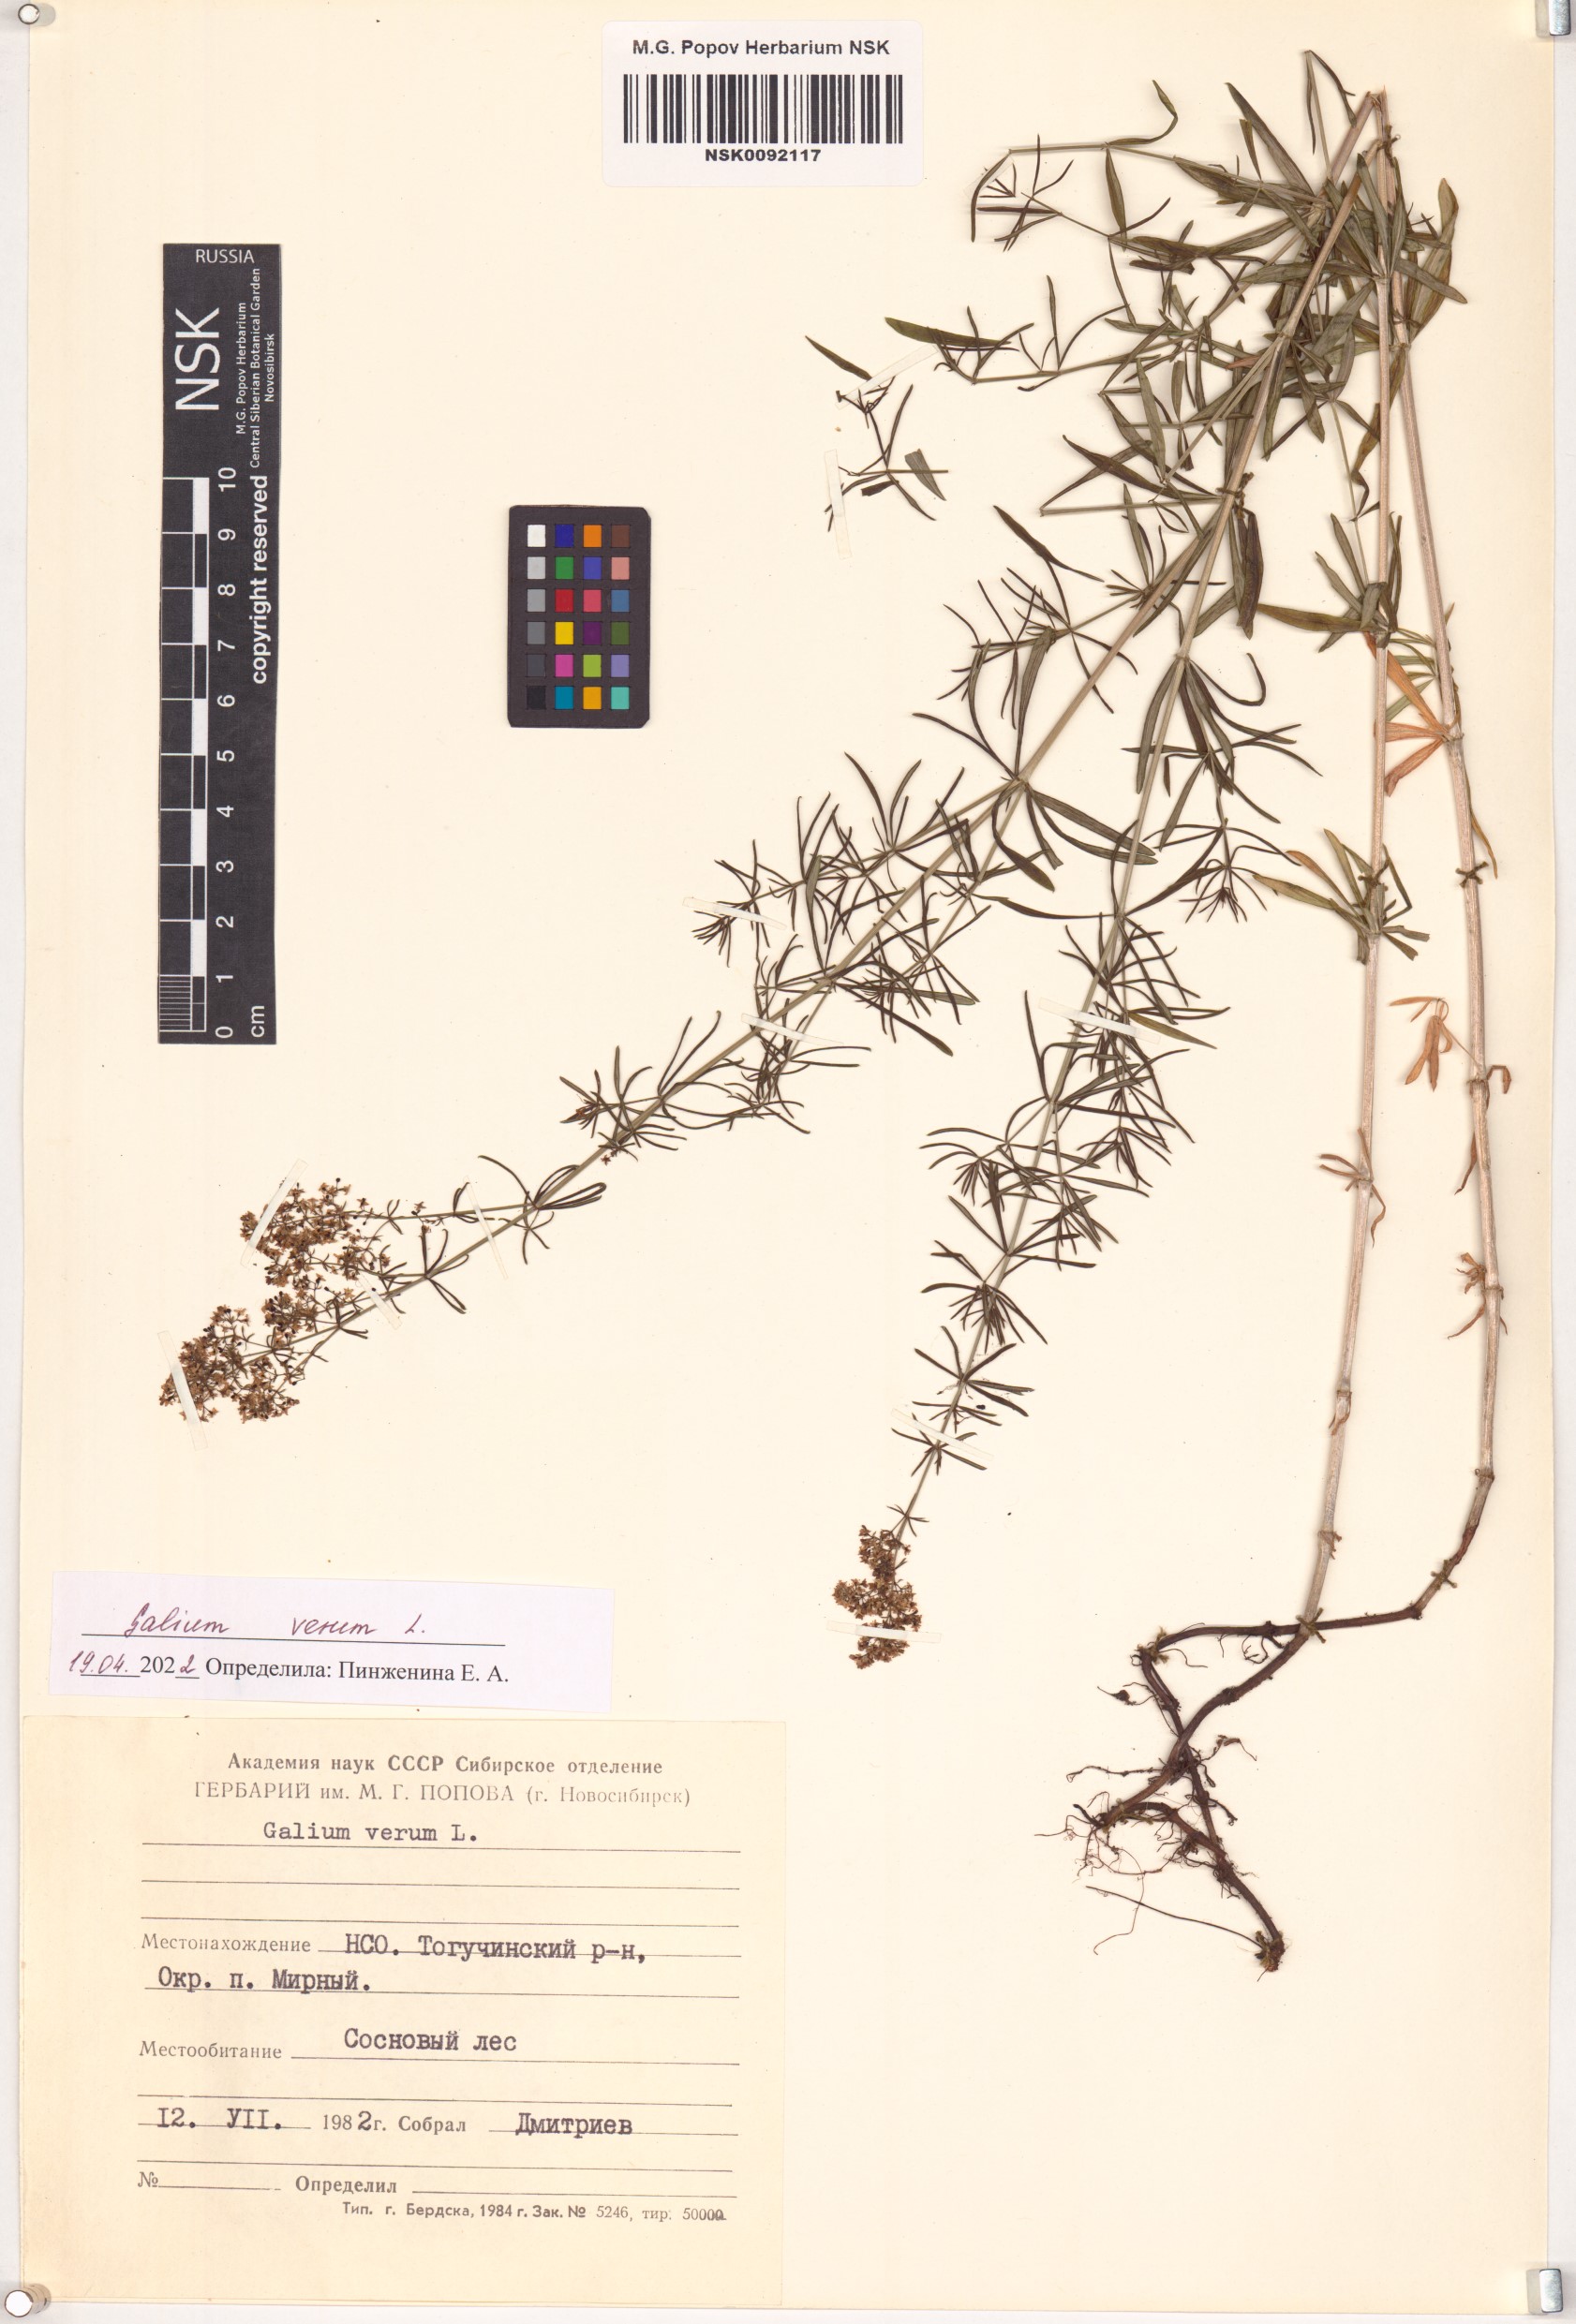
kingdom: Plantae
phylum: Tracheophyta
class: Magnoliopsida
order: Gentianales
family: Rubiaceae
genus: Galium
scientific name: Galium verum
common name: Lady's bedstraw
